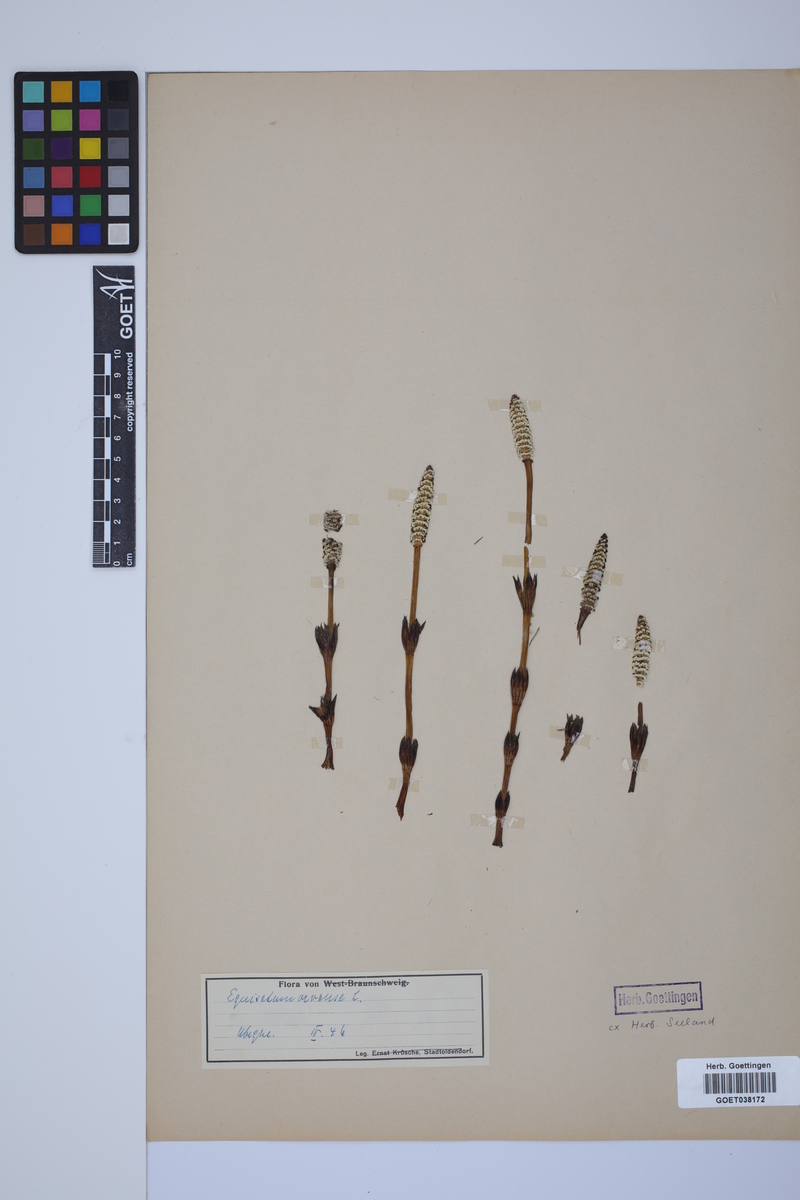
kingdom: Plantae
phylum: Tracheophyta
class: Polypodiopsida
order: Equisetales
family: Equisetaceae
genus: Equisetum
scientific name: Equisetum arvense
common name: Field horsetail
